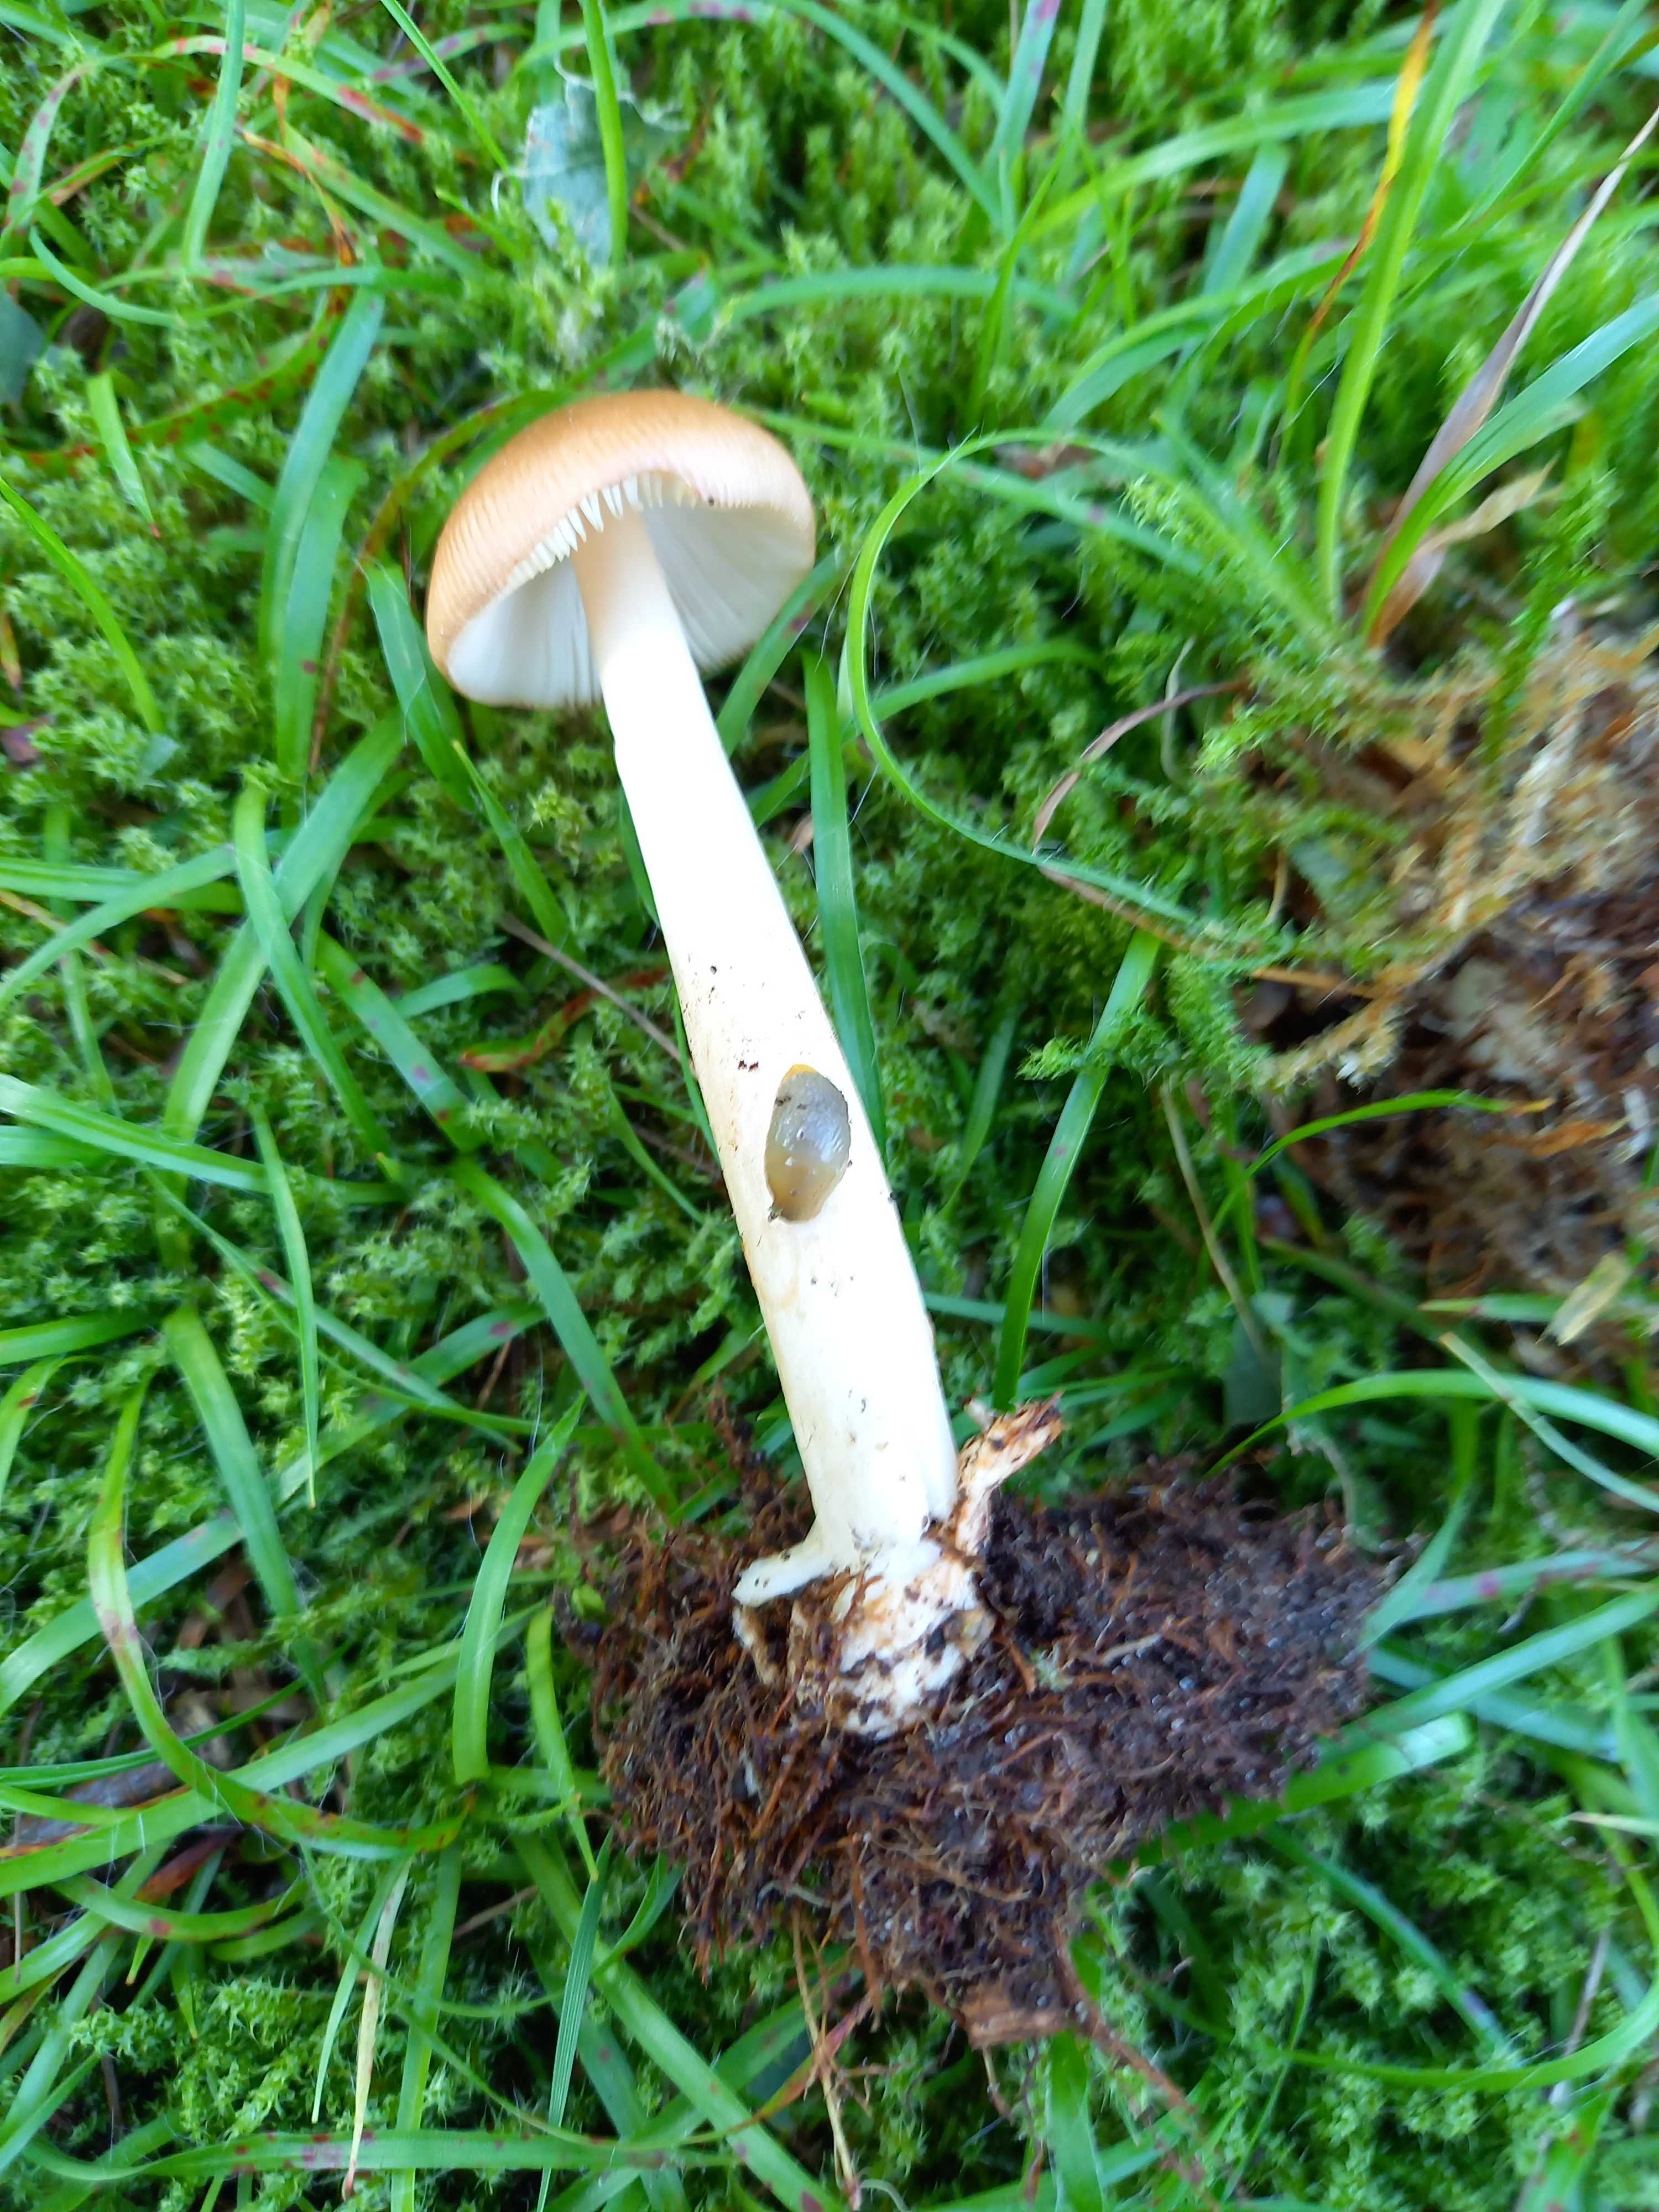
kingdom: Fungi
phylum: Basidiomycota
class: Agaricomycetes
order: Agaricales
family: Amanitaceae
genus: Amanita
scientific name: Amanita fulva
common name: brun kam-fluesvamp
